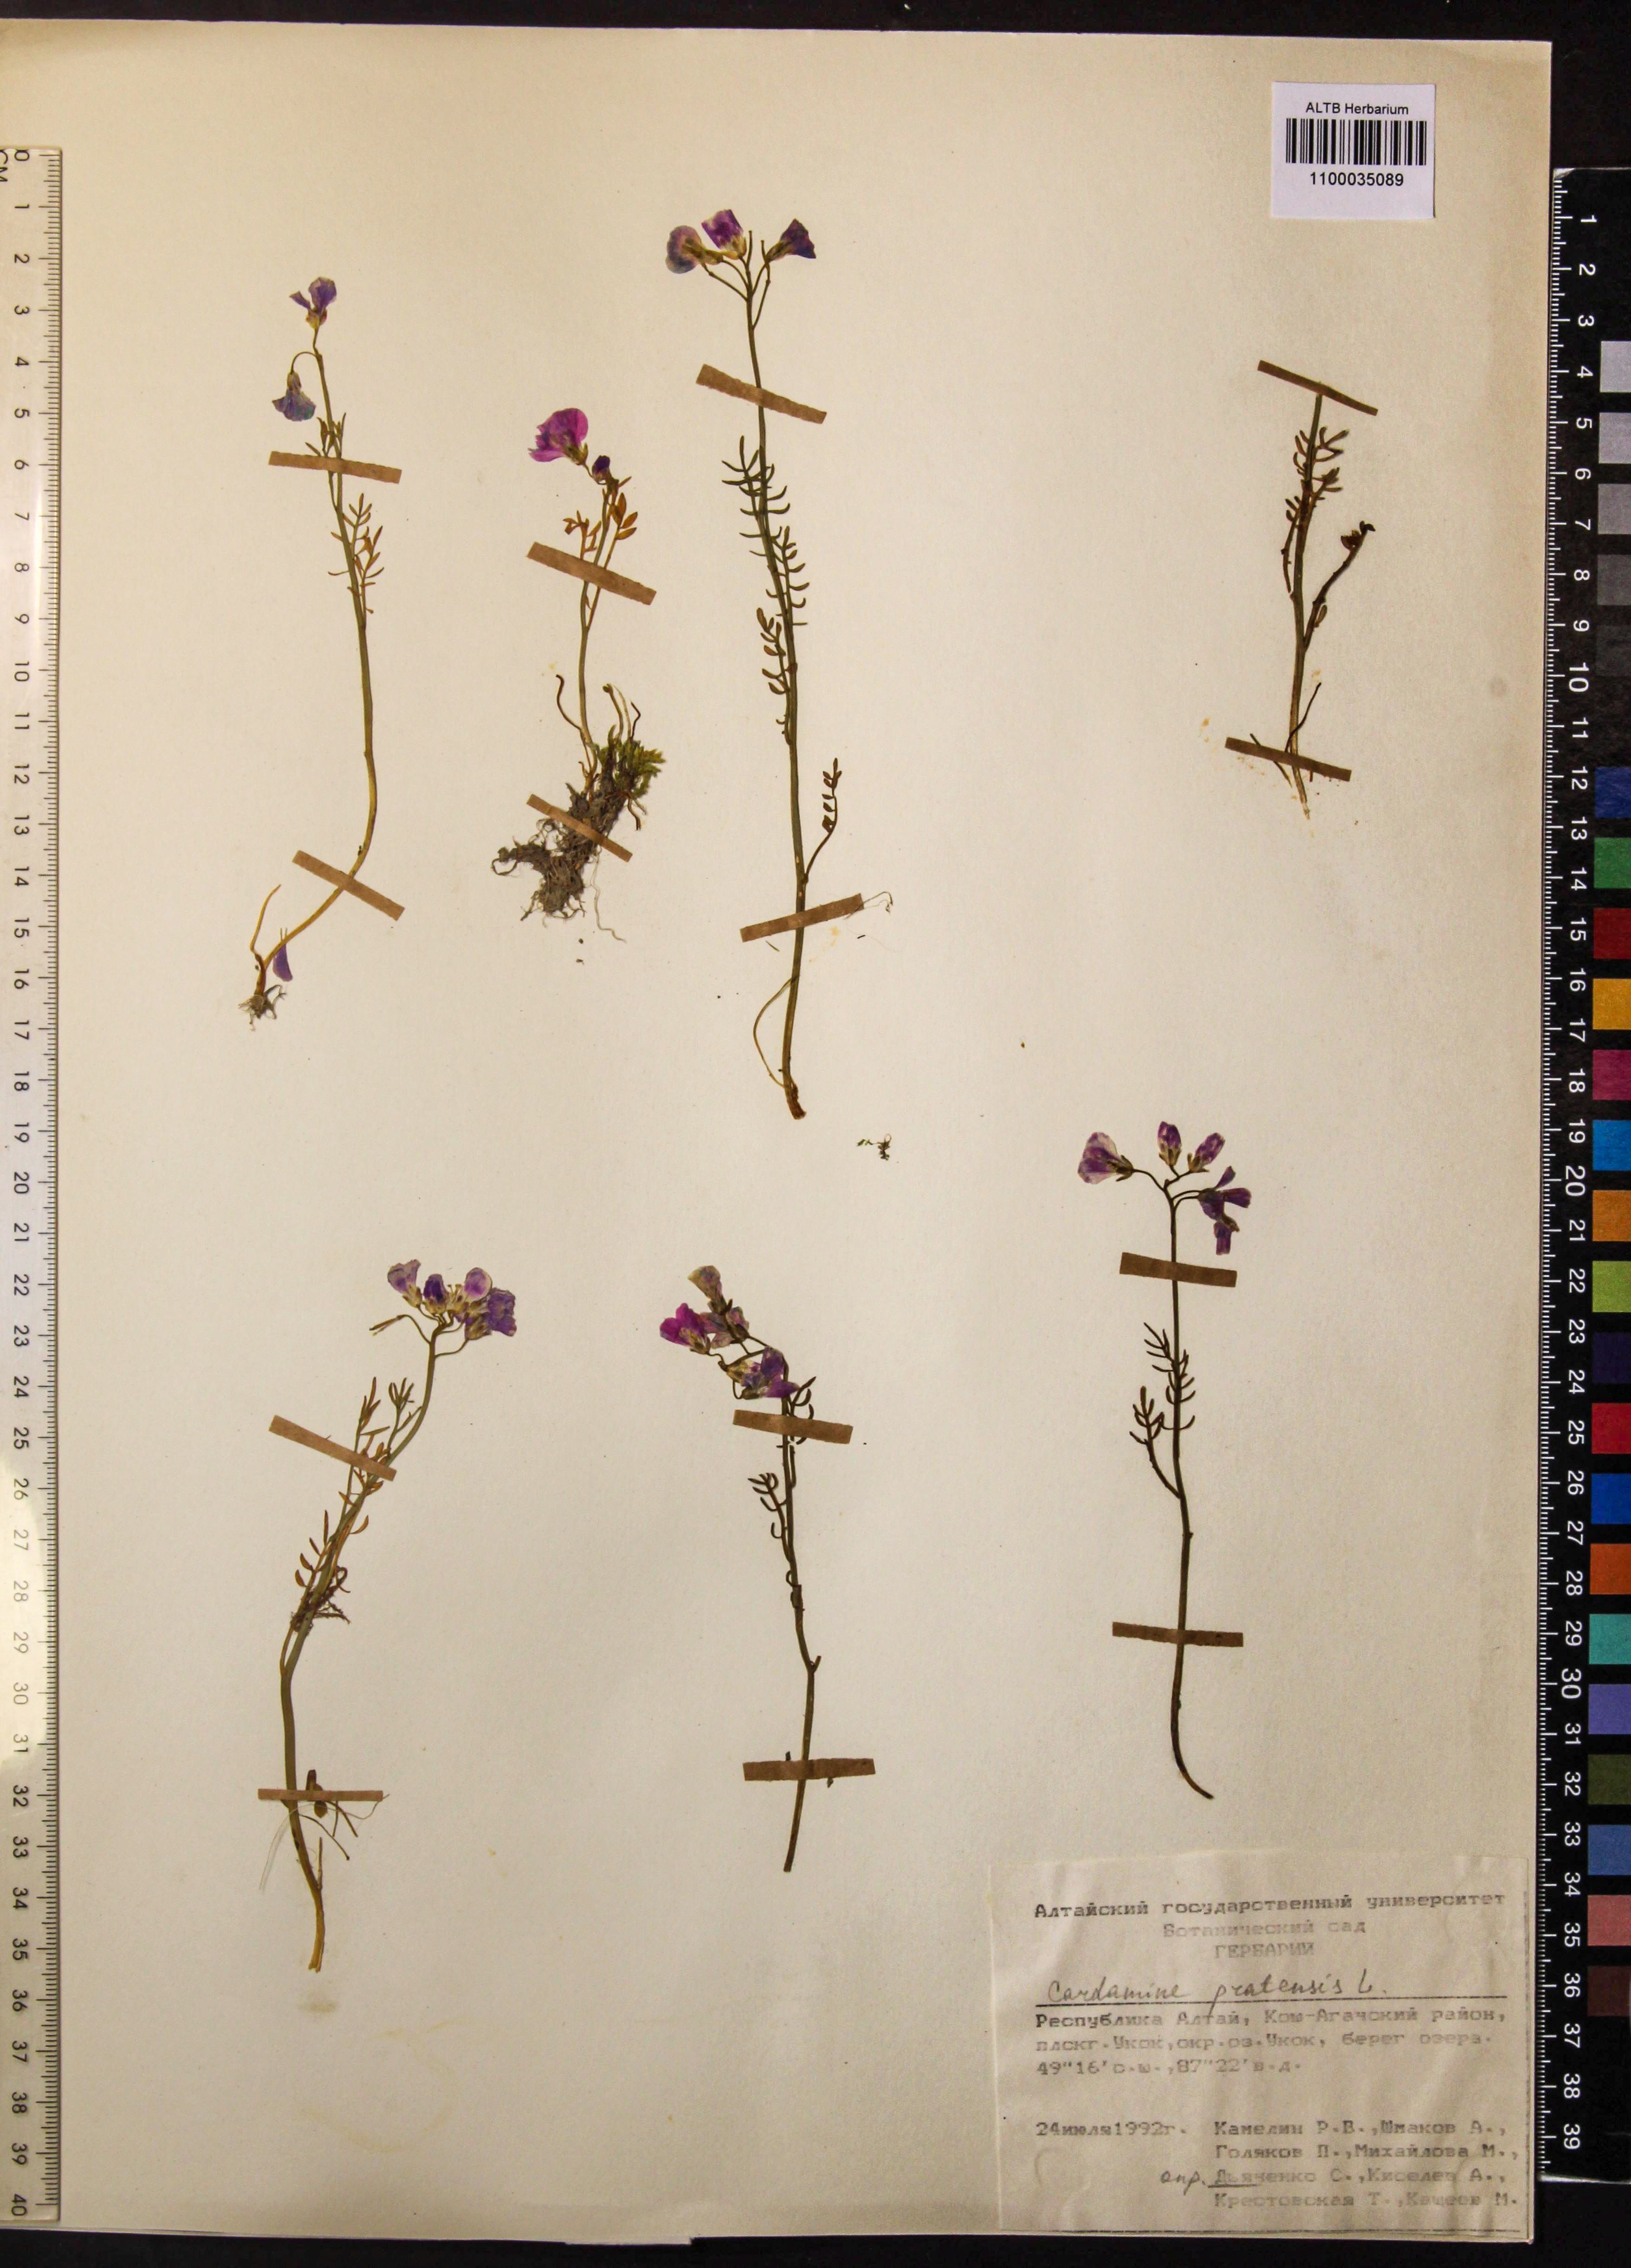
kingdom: Plantae
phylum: Tracheophyta
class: Magnoliopsida
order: Brassicales
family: Brassicaceae
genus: Cardamine
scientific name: Cardamine pratensis
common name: Cuckoo flower
